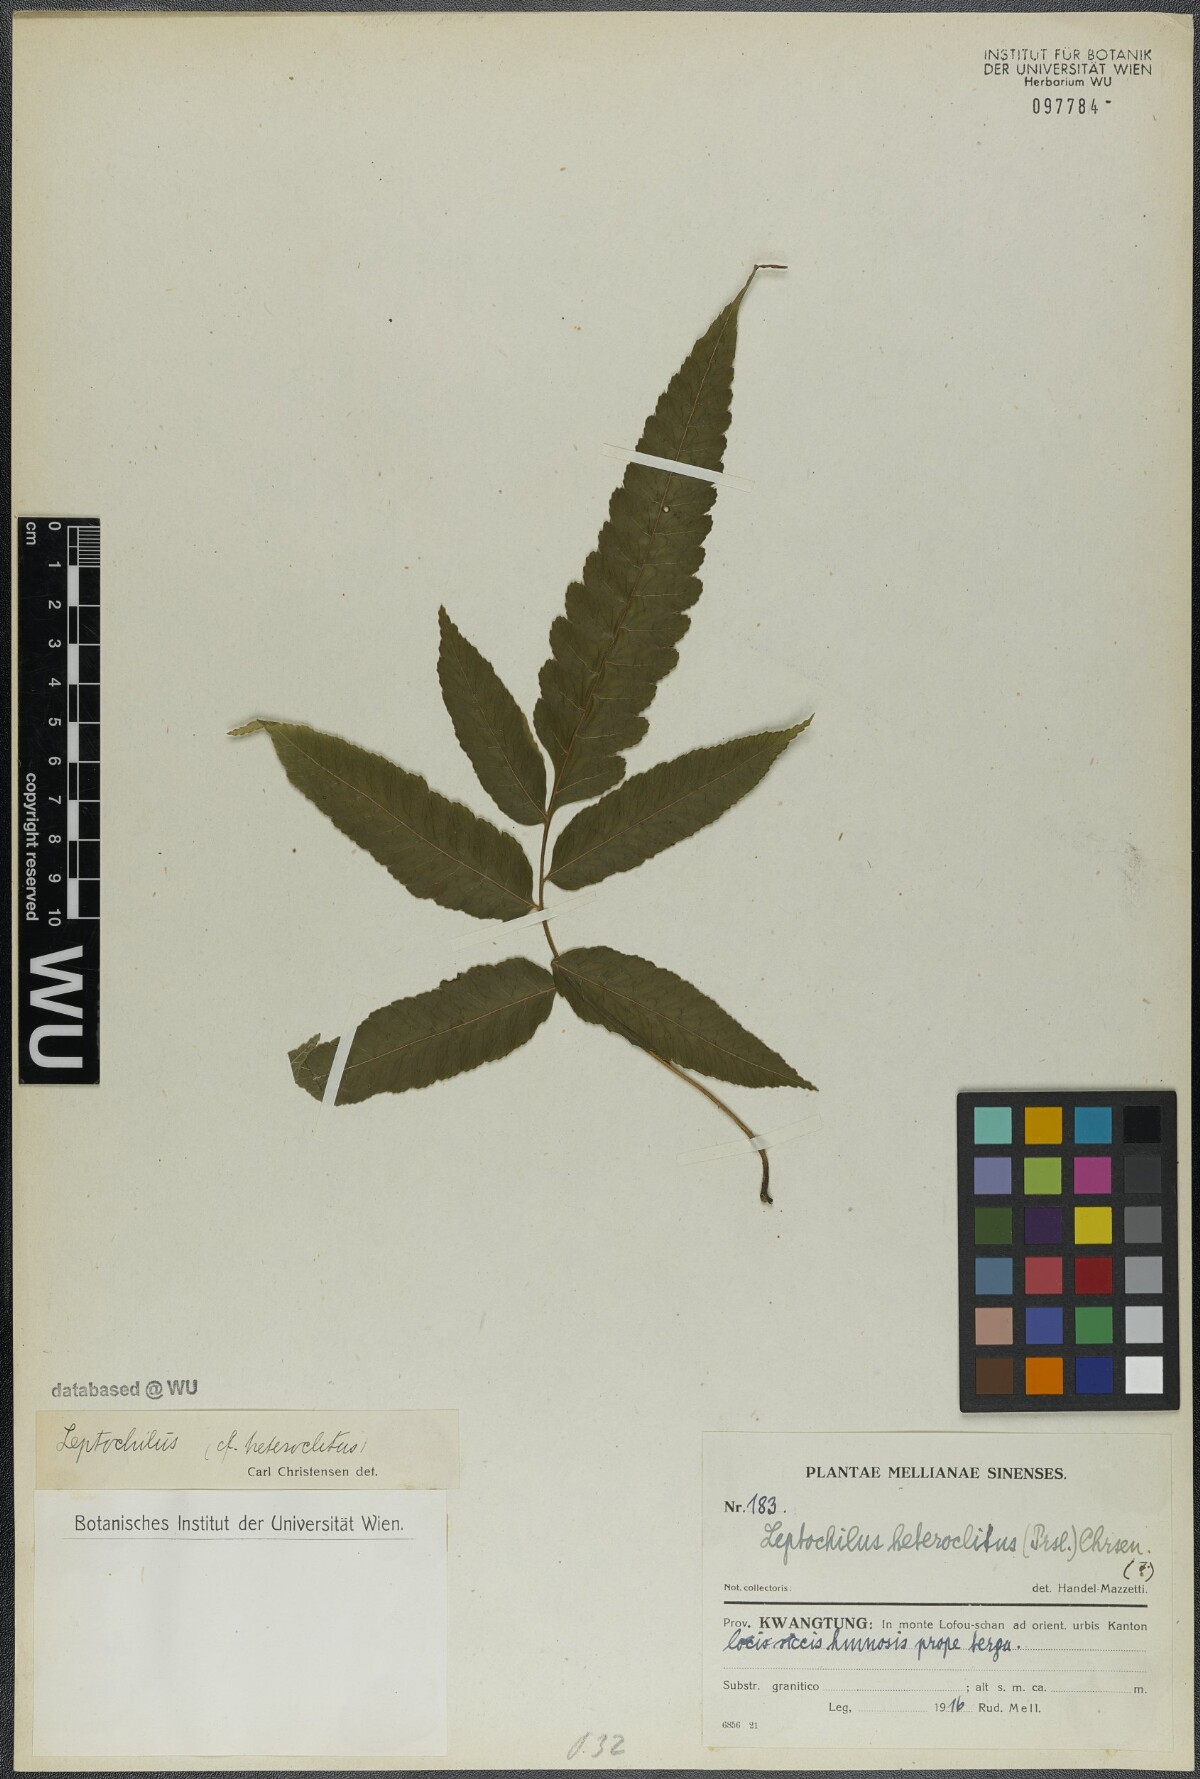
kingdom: Plantae
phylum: Tracheophyta
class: Polypodiopsida
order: Polypodiales
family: Dryopteridaceae
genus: Bolbitis
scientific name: Bolbitis heteroclita
